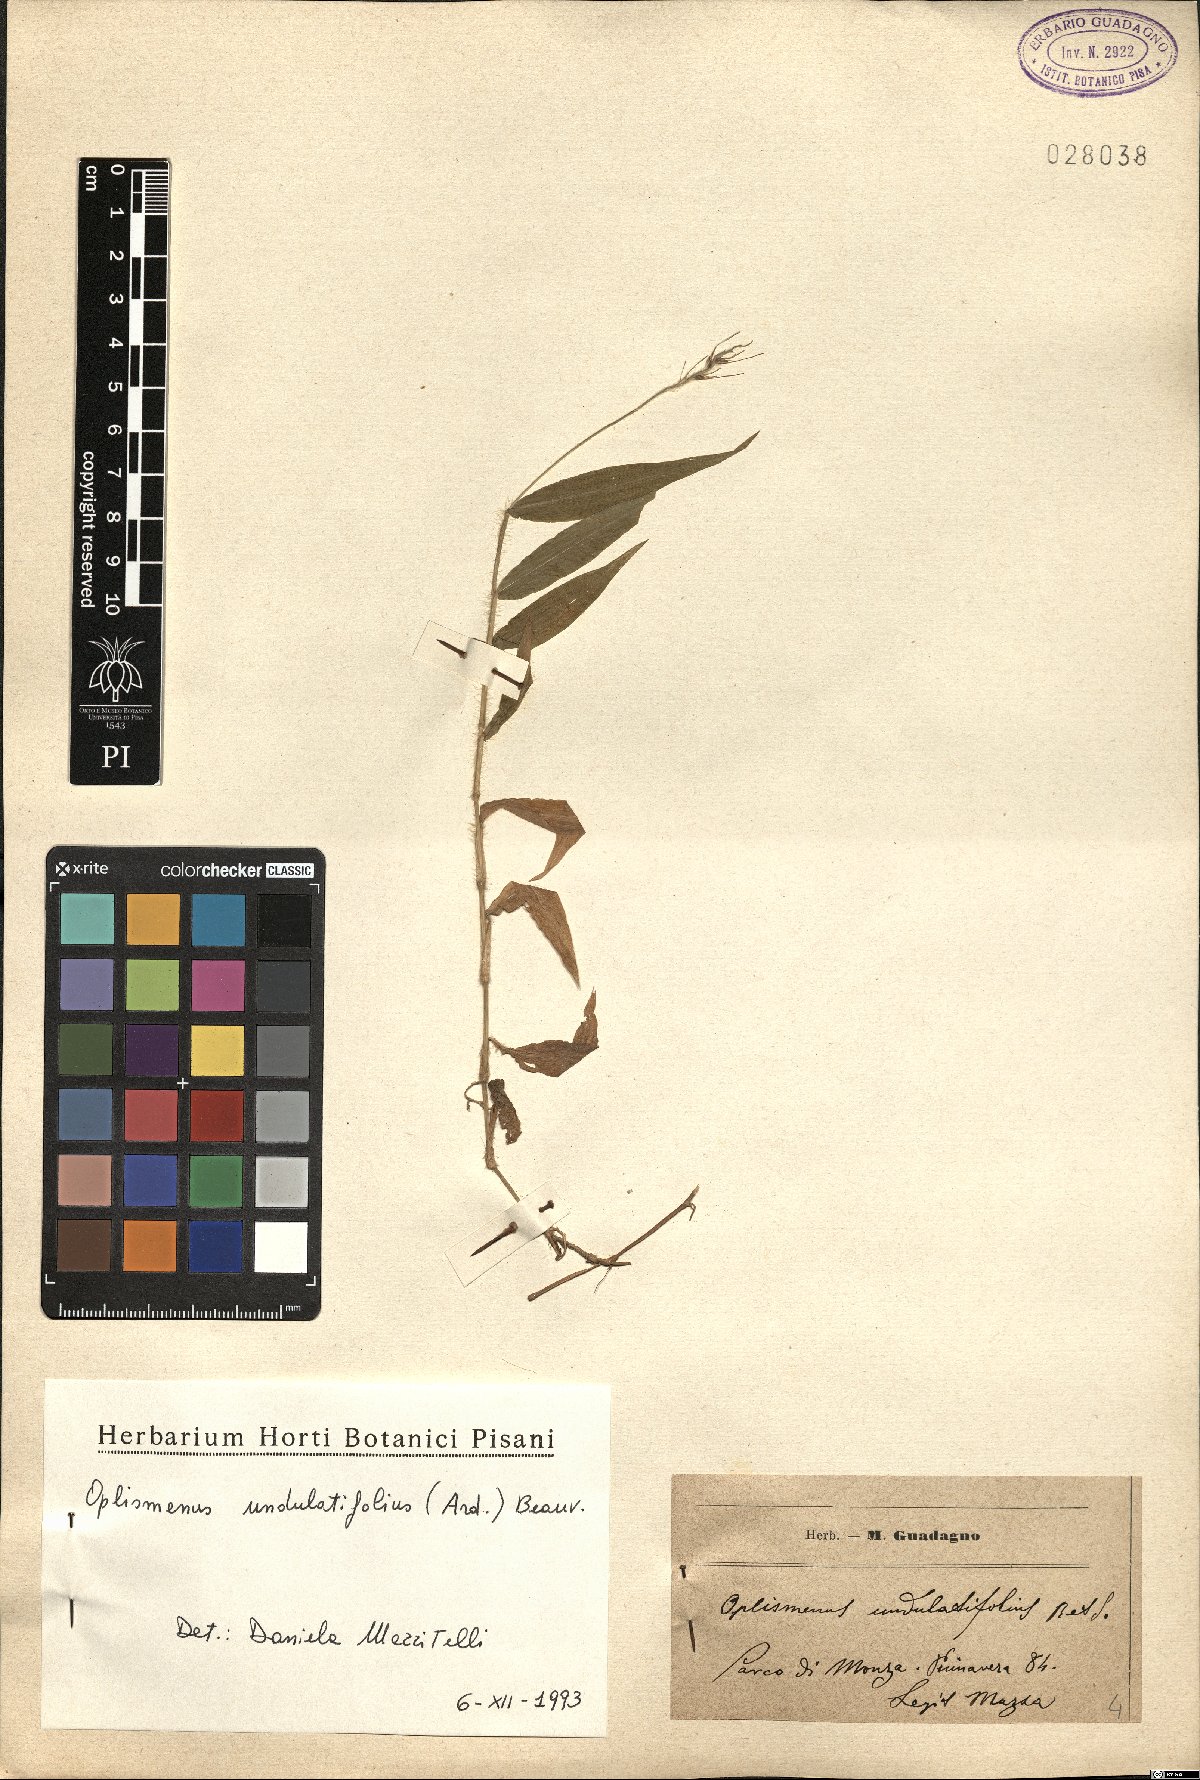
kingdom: Plantae
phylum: Tracheophyta
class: Liliopsida
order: Poales
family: Poaceae
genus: Oplismenus
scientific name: Oplismenus undulatifolius
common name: Wavyleaf basketgrass
